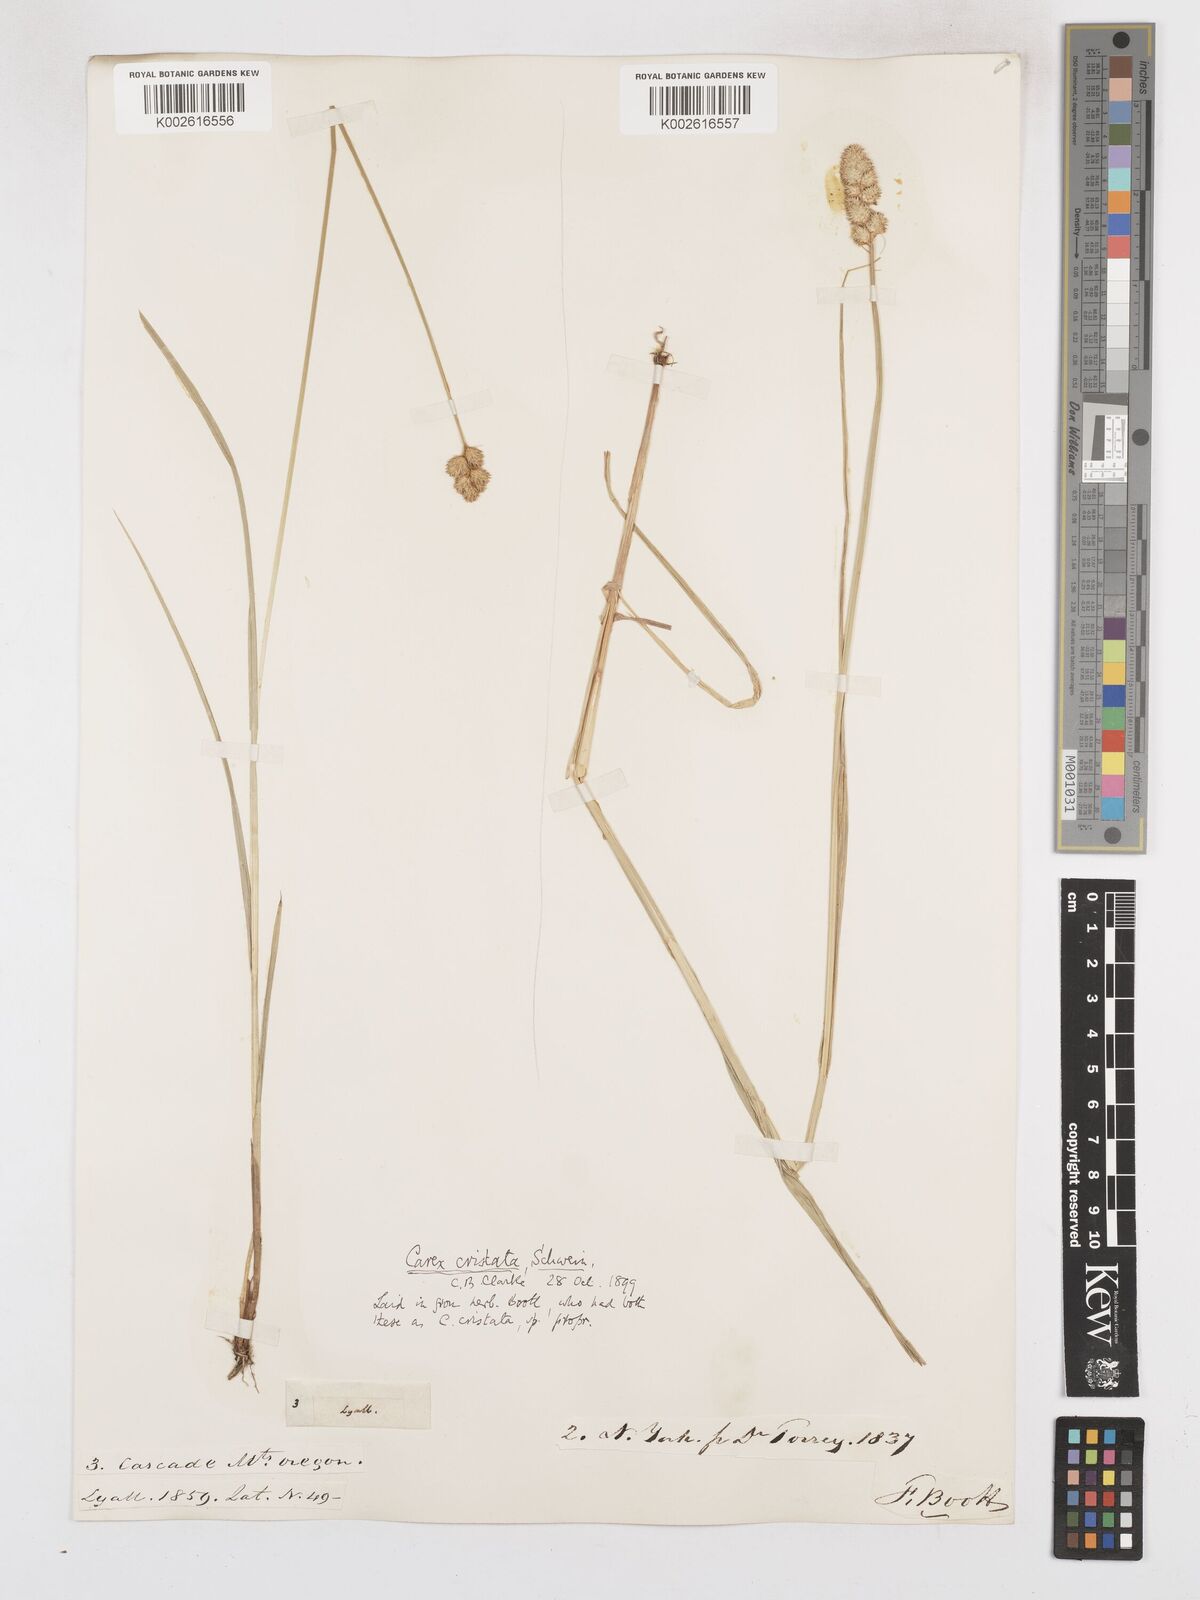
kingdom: Plantae
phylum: Tracheophyta
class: Liliopsida
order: Poales
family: Cyperaceae
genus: Carex
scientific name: Carex cristatella
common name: Crested oval sedge
